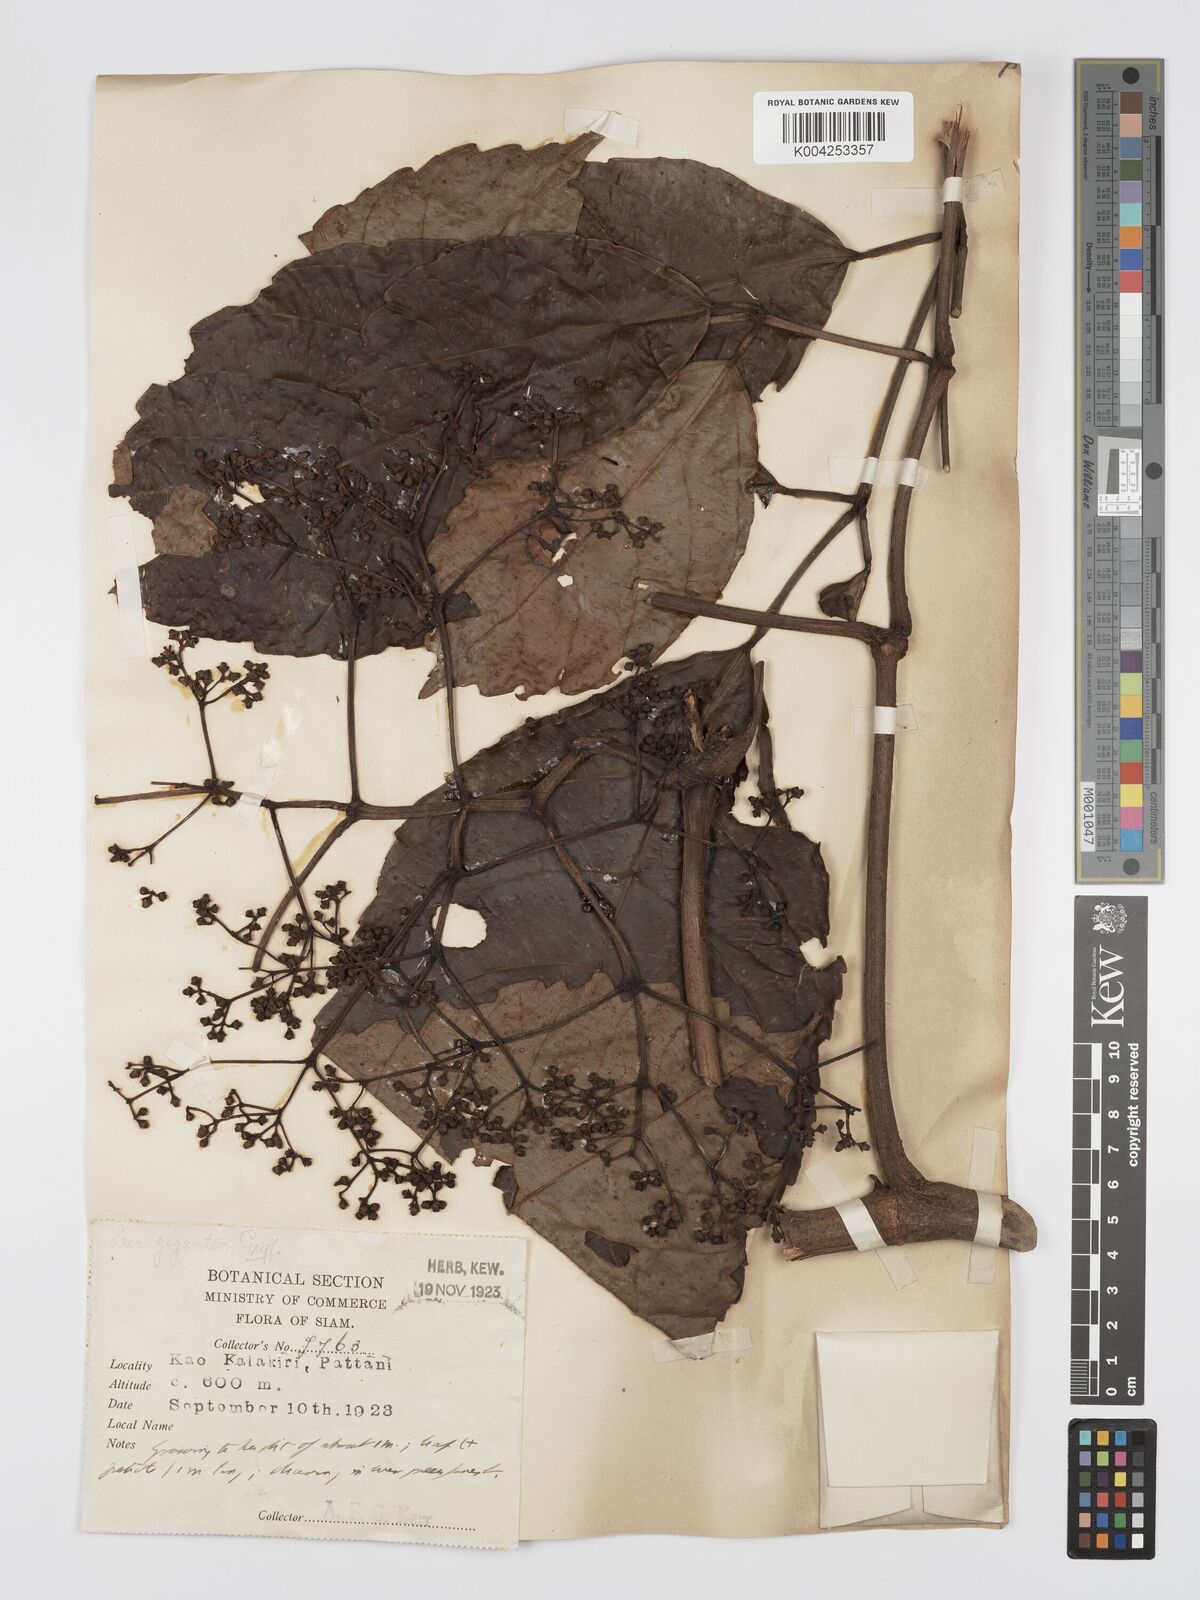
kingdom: Plantae
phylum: Tracheophyta
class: Magnoliopsida
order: Vitales
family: Vitaceae
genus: Leea
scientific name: Leea indica
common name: Bandicoot-berry
